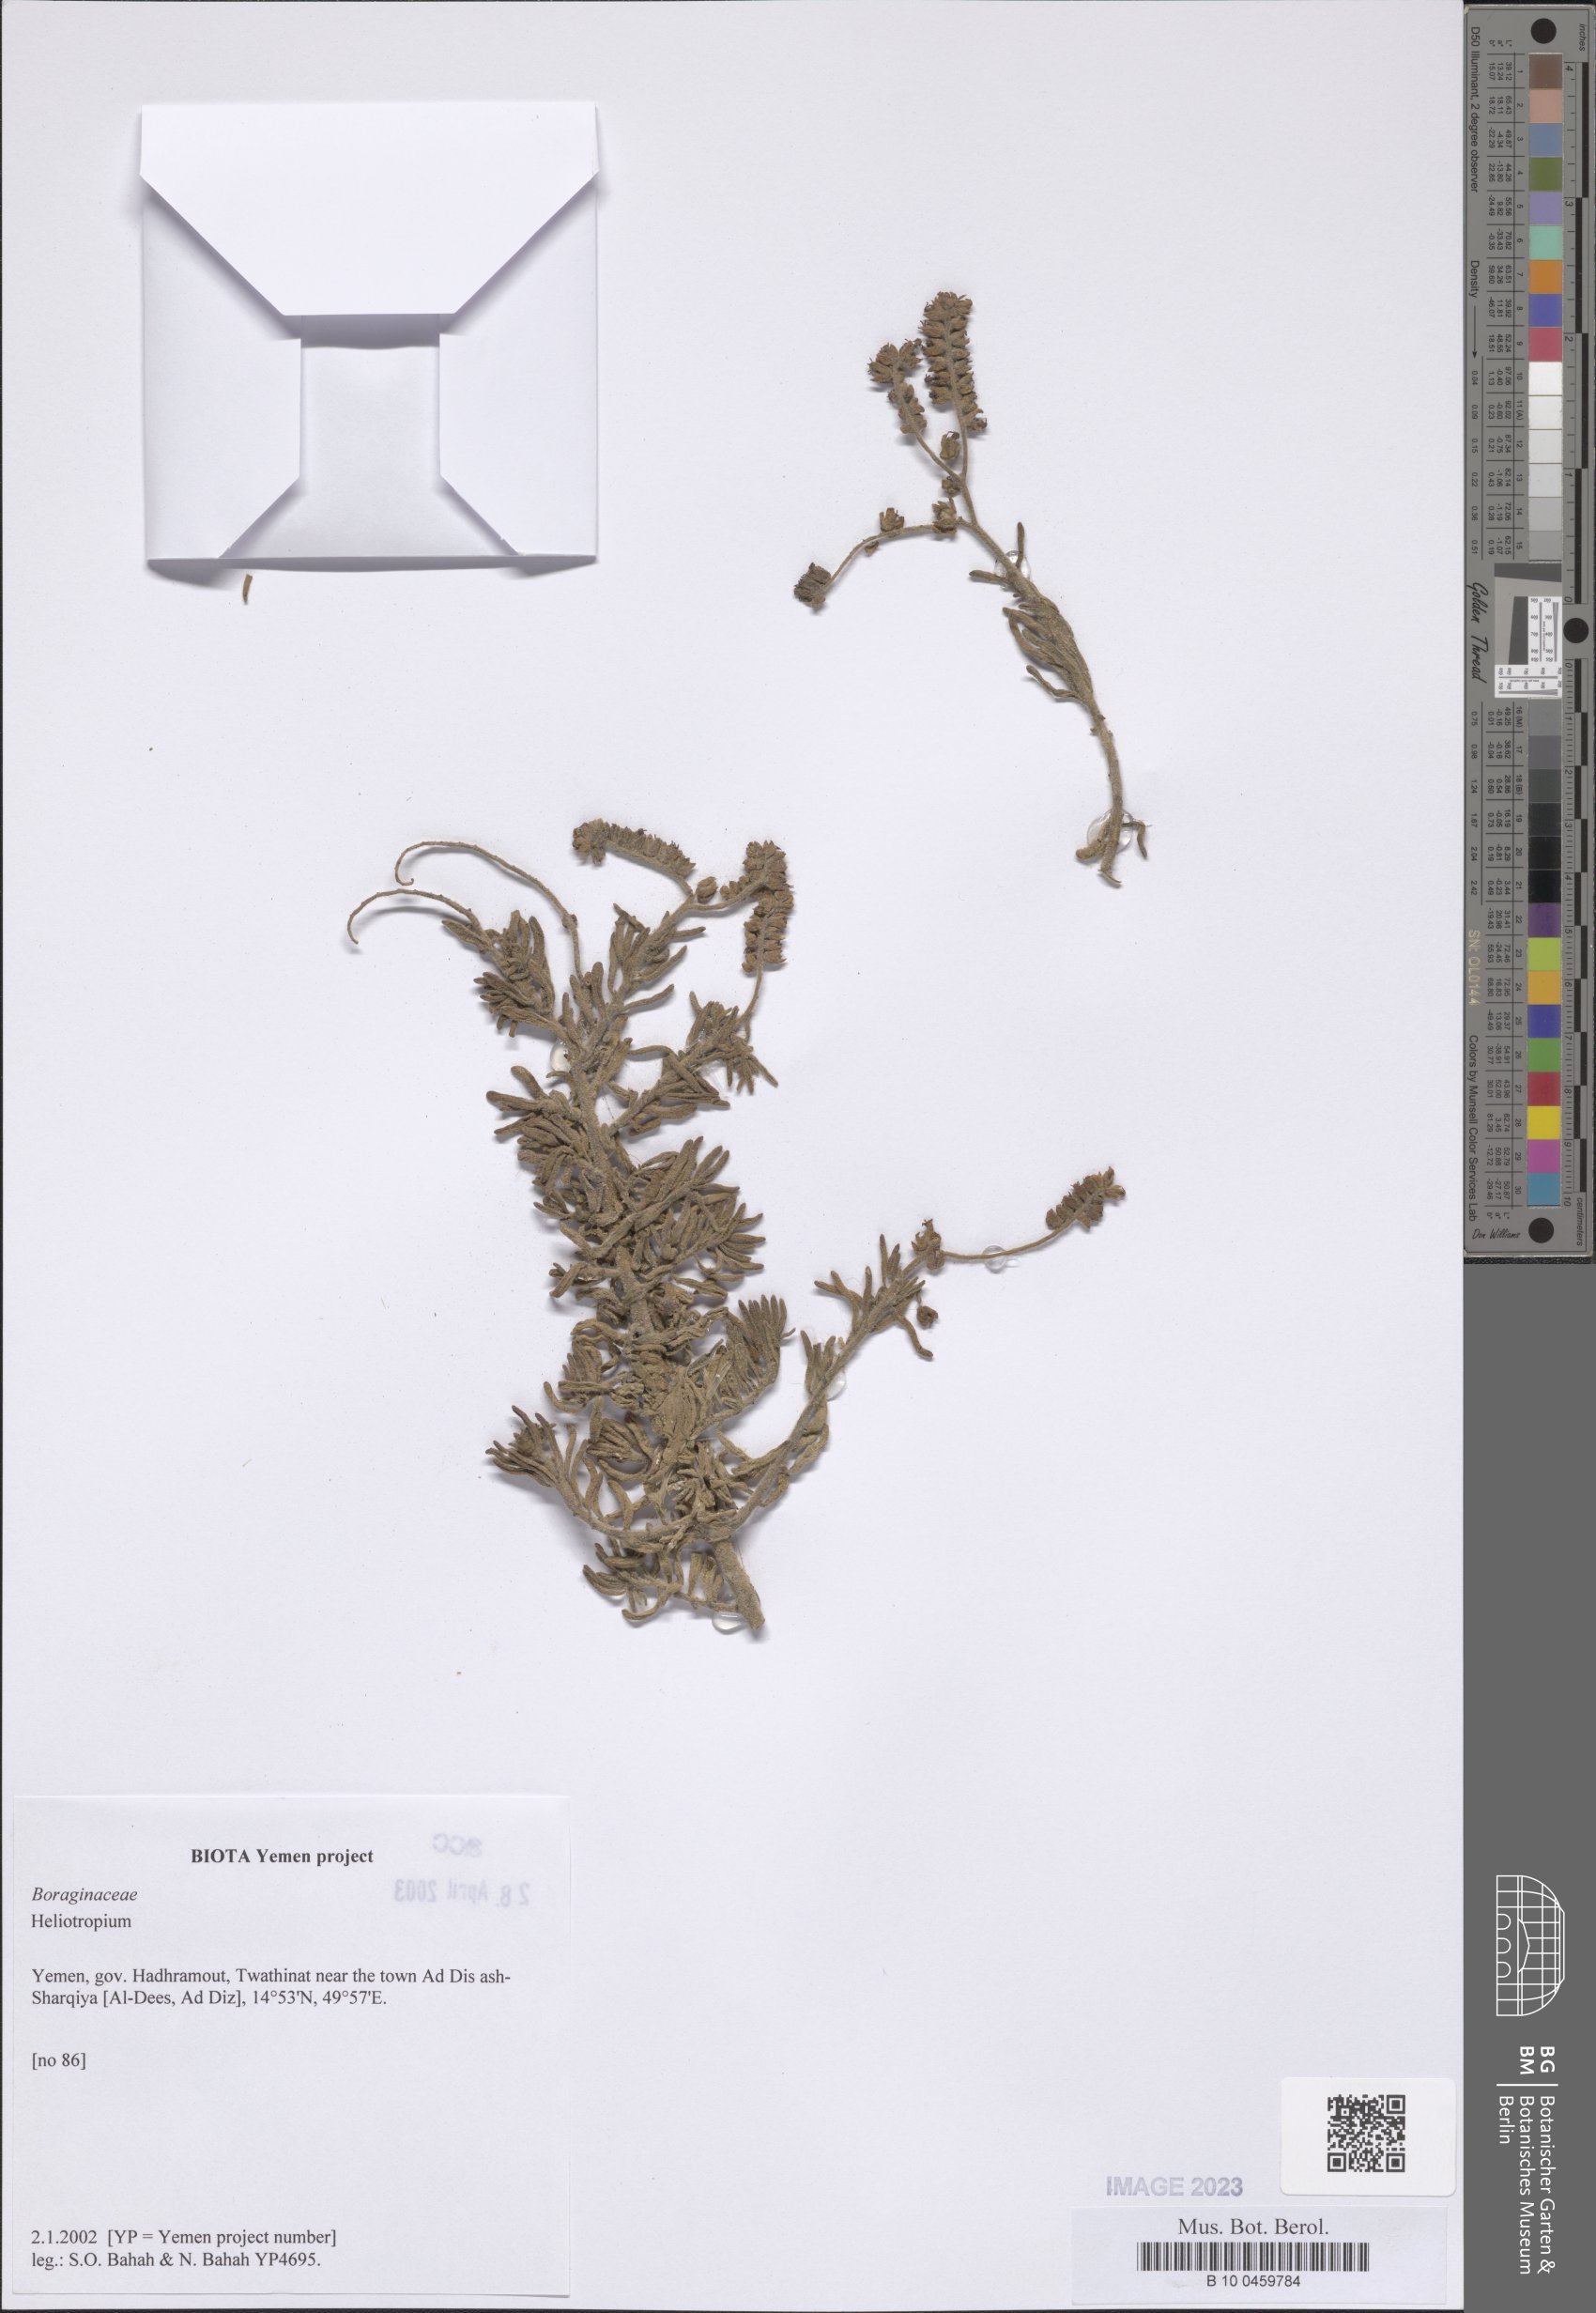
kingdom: Plantae
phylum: Tracheophyta
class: Magnoliopsida
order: Boraginales
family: Heliotropiaceae
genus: Heliotropium
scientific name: Heliotropium
